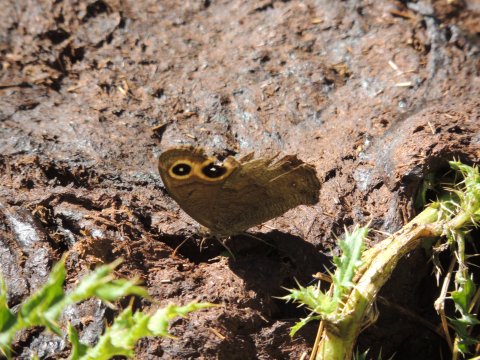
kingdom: Animalia
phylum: Arthropoda
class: Insecta
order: Lepidoptera
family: Nymphalidae
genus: Cercyonis
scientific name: Cercyonis pegala
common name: Common Wood-Nymph
